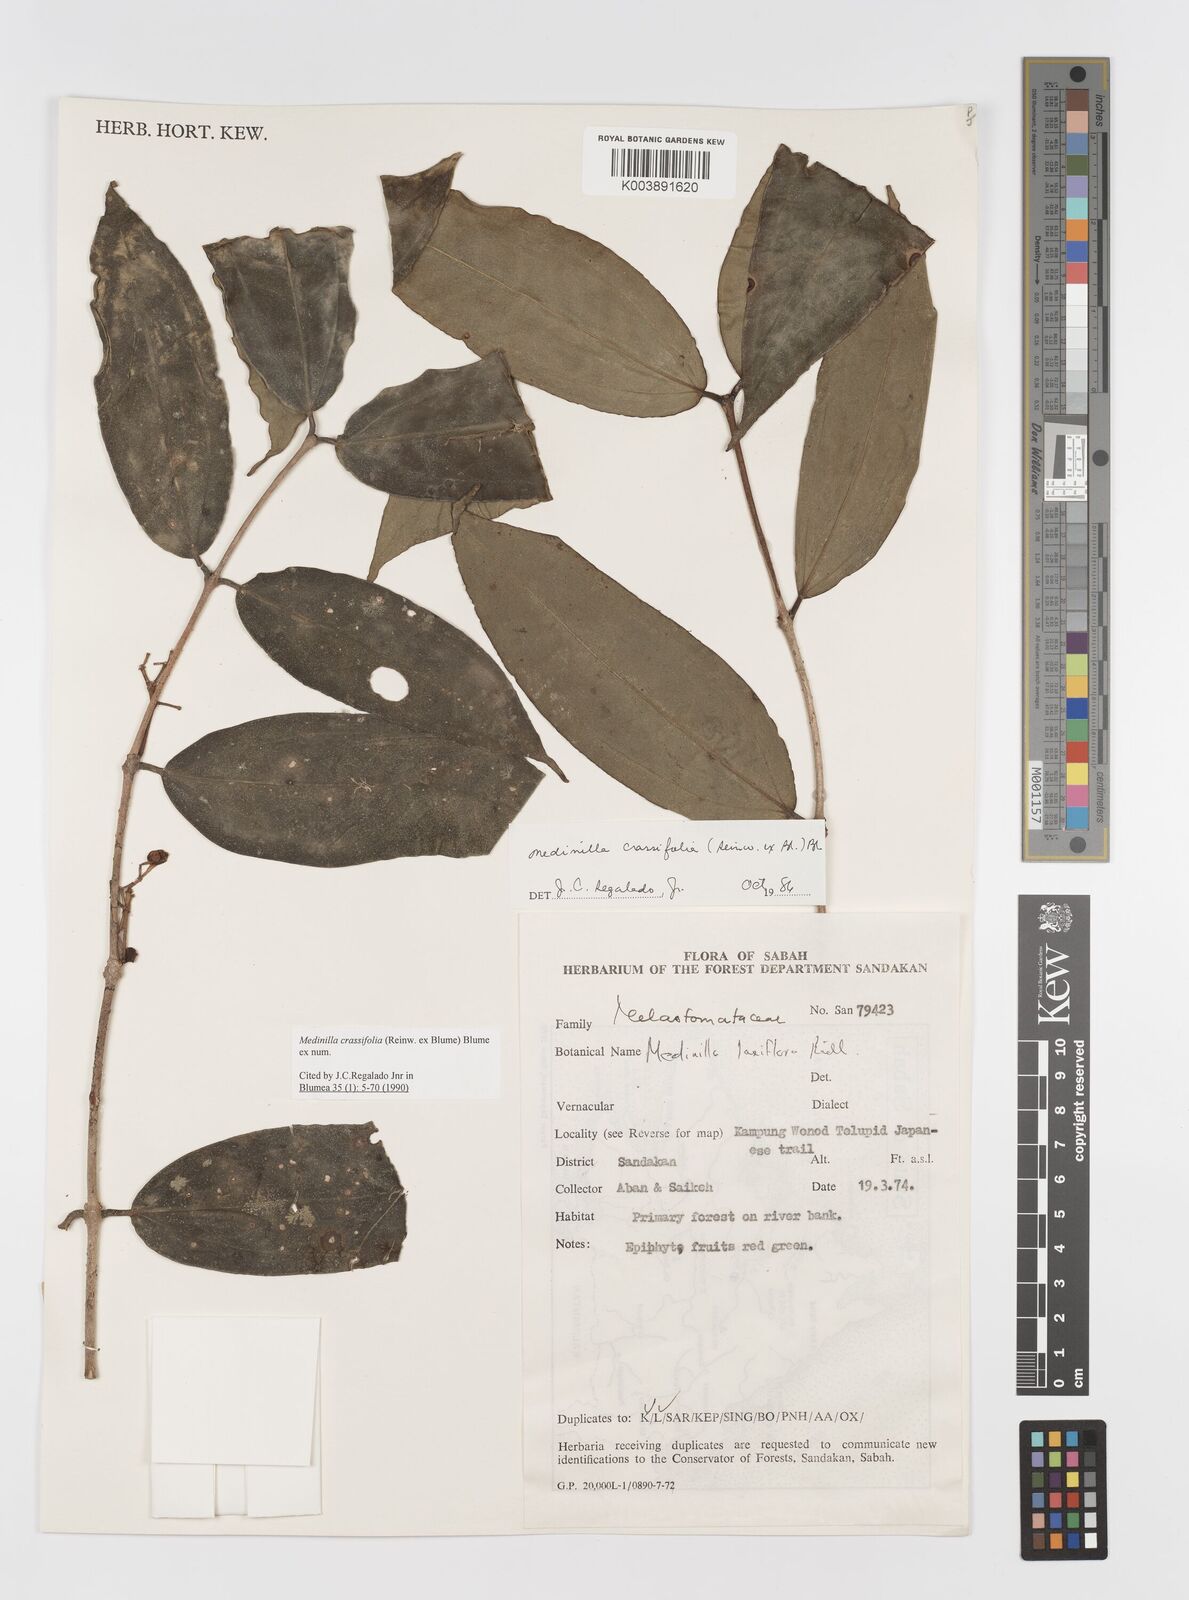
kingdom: Plantae
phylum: Tracheophyta
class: Magnoliopsida
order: Myrtales
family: Melastomataceae
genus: Medinilla
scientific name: Medinilla crassifolia
